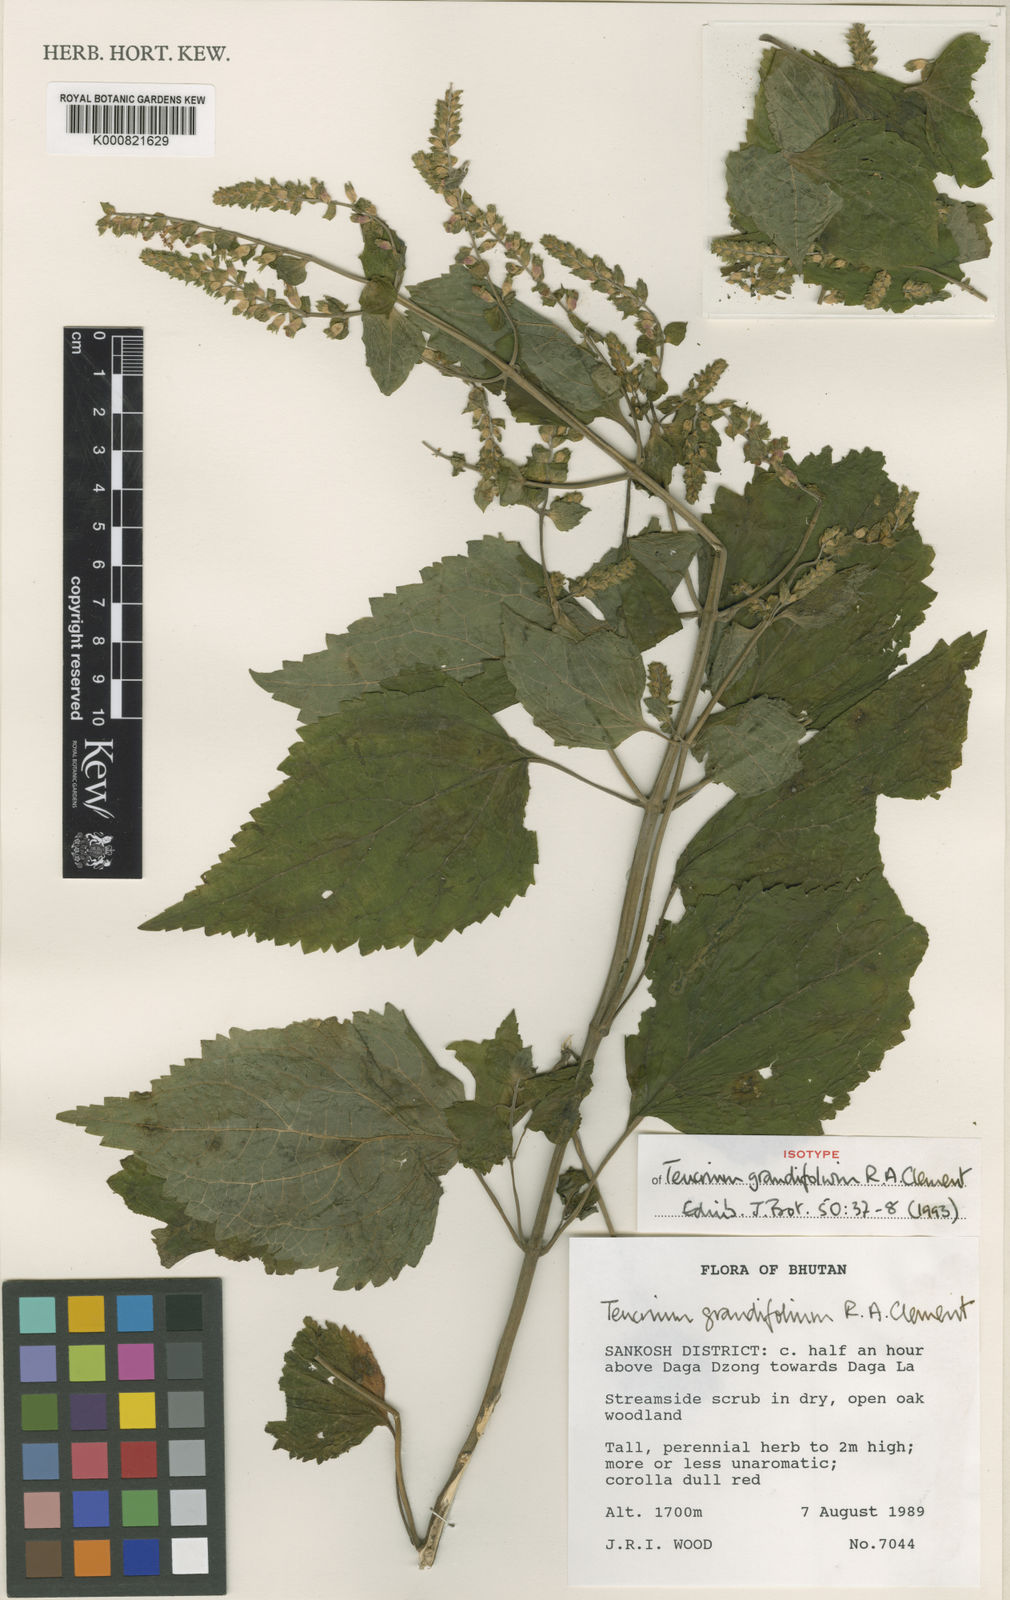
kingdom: Plantae
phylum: Tracheophyta
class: Magnoliopsida
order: Lamiales
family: Lamiaceae
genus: Teucrium
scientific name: Teucrium grandifolium
